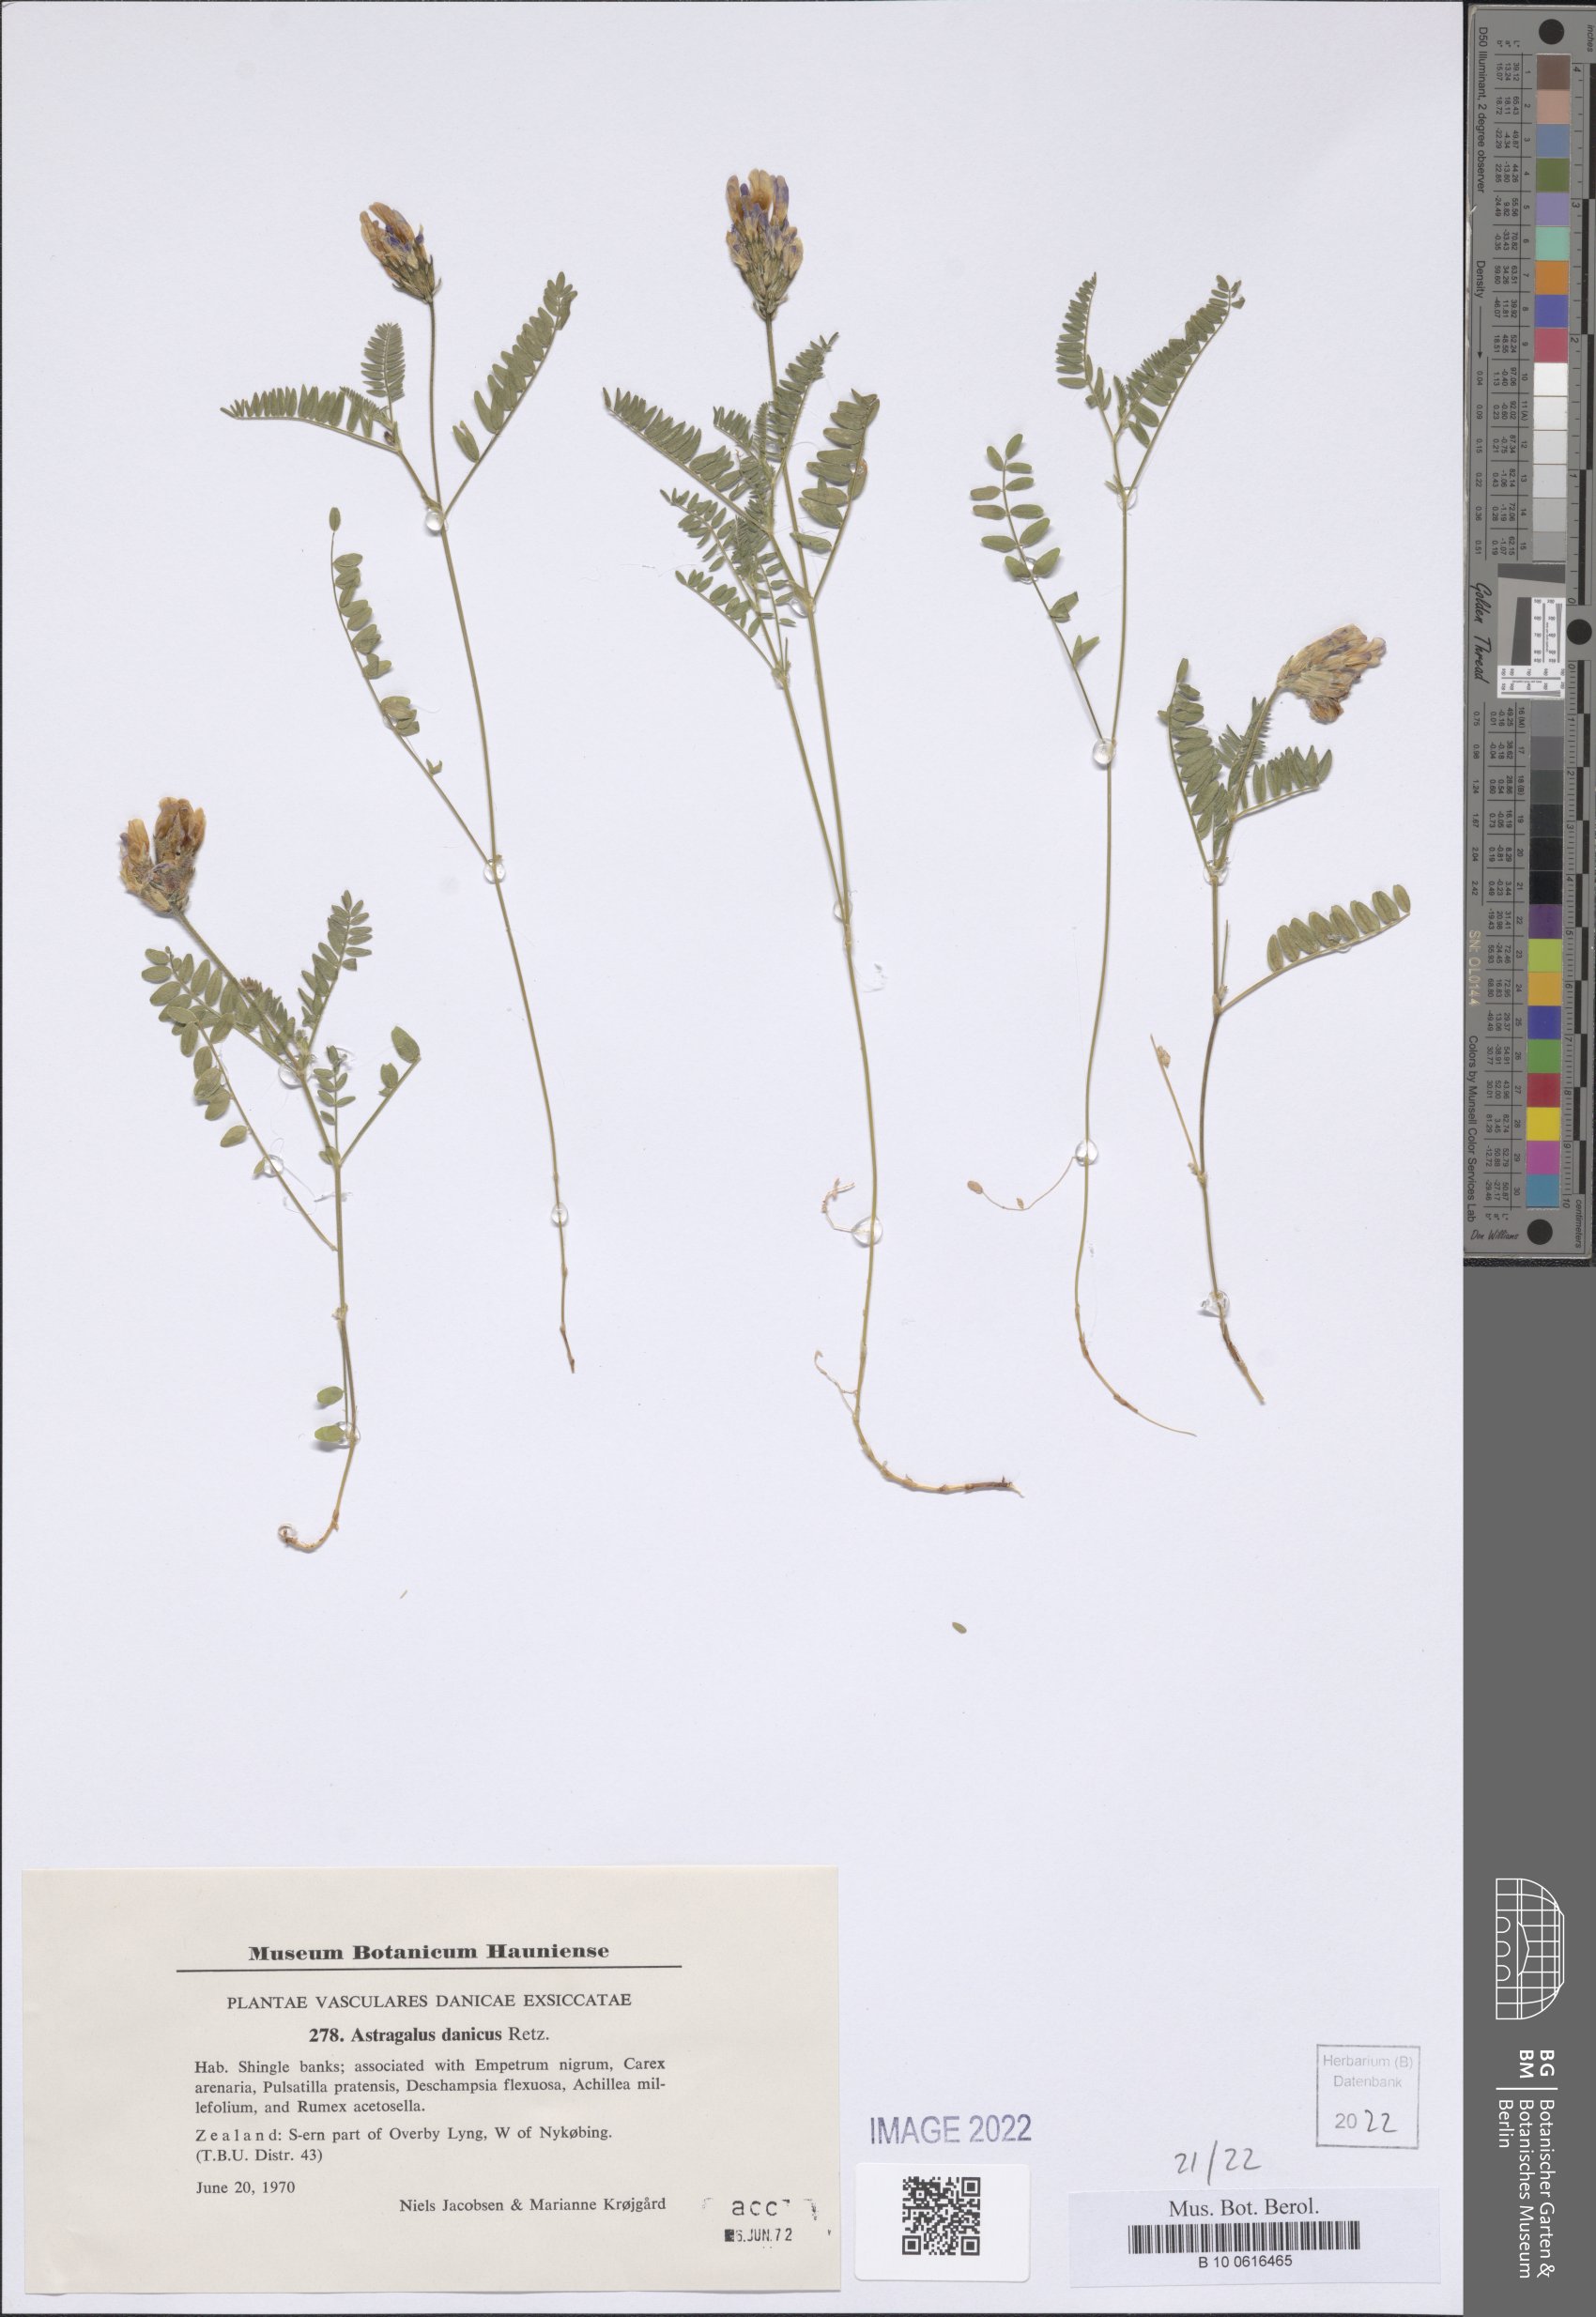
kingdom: Plantae
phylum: Tracheophyta
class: Magnoliopsida
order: Fabales
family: Fabaceae
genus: Astragalus
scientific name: Astragalus danicus
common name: Purple milk-vetch
